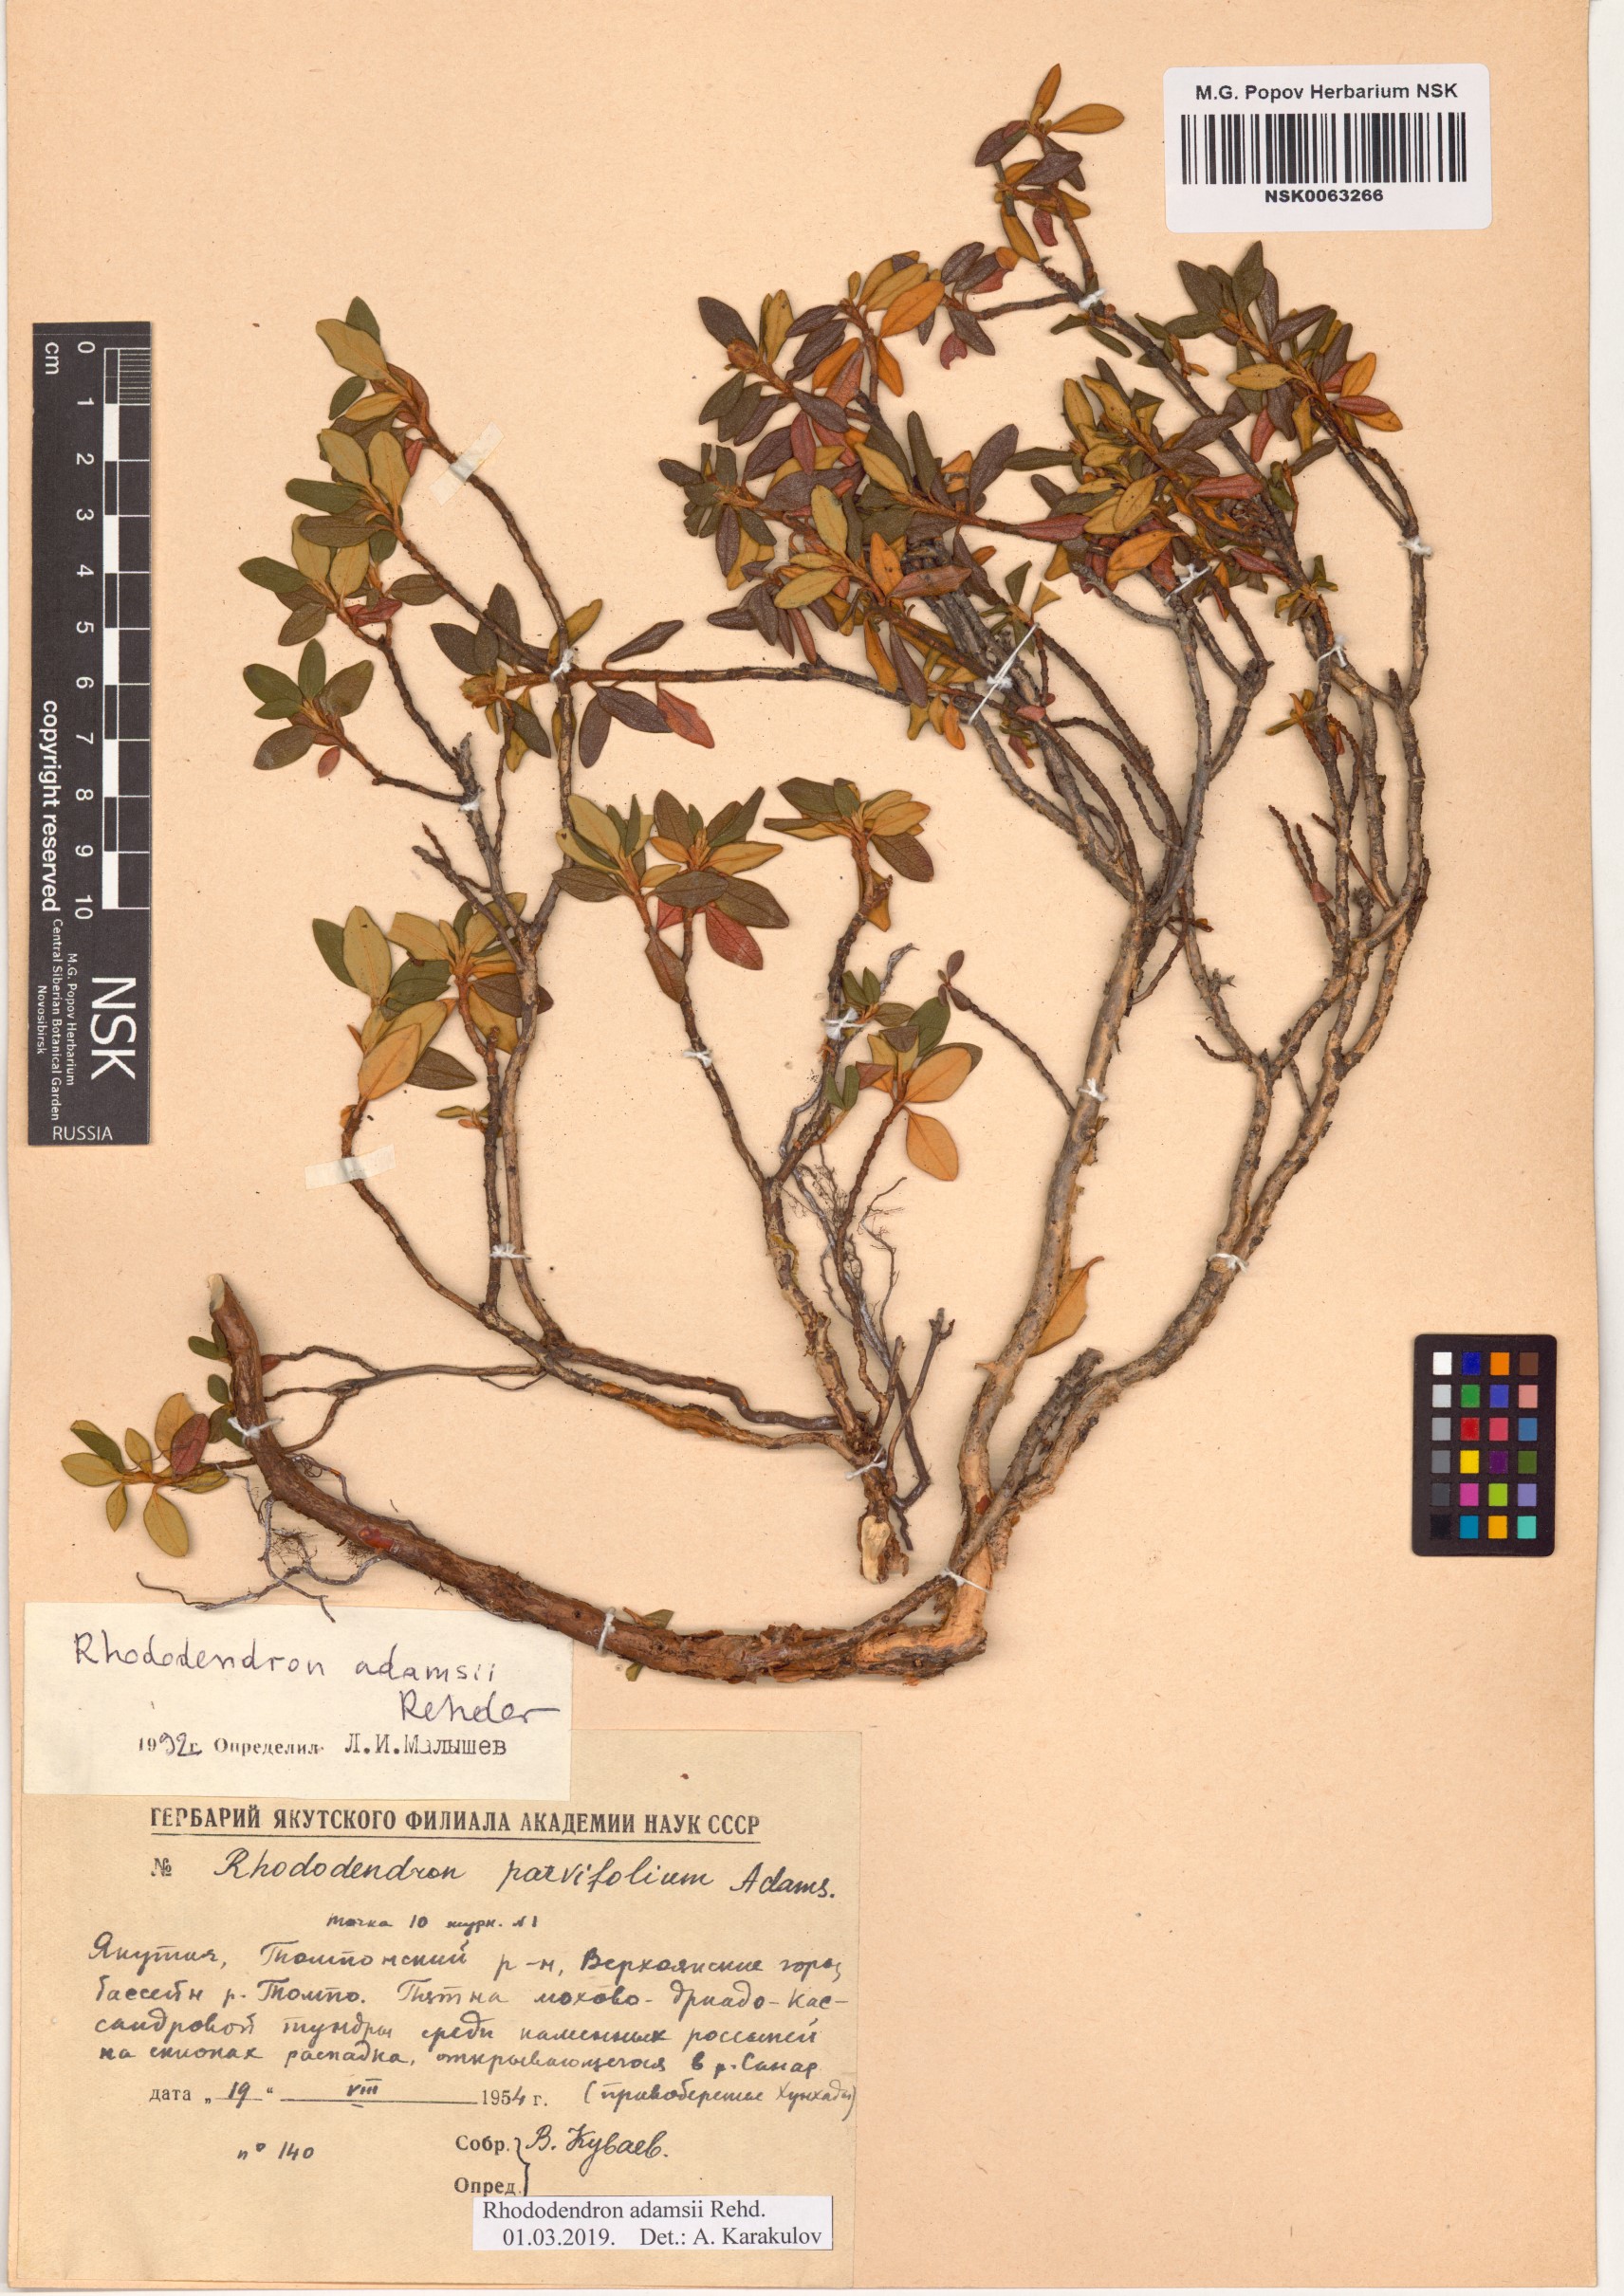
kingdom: Plantae
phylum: Tracheophyta
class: Magnoliopsida
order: Ericales
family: Ericaceae
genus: Rhododendron
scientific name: Rhododendron adamsii
